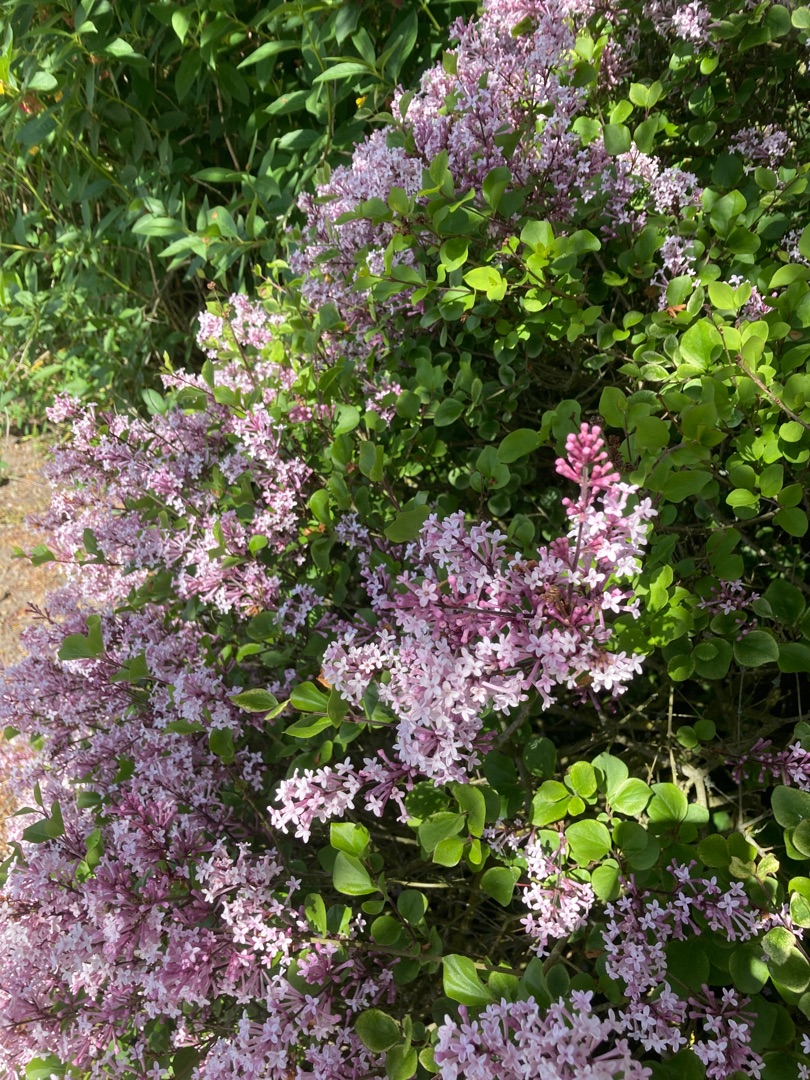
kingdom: Plantae
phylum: Tracheophyta
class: Magnoliopsida
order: Lamiales
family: Oleaceae
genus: Syringa
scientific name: Syringa vulgaris
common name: Syren
